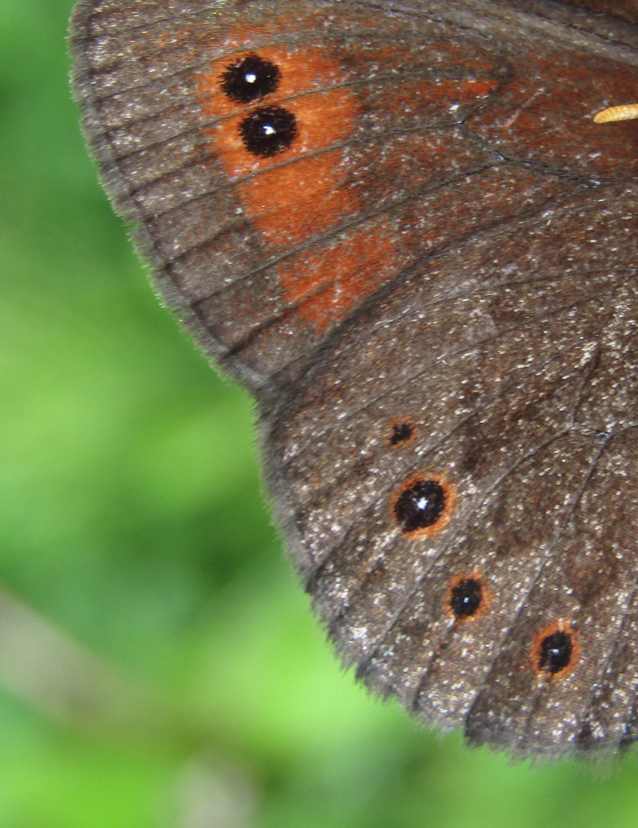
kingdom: Animalia
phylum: Arthropoda
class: Insecta
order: Lepidoptera
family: Nymphalidae
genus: Erebia
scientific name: Erebia epipsodea
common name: Common Alpine
